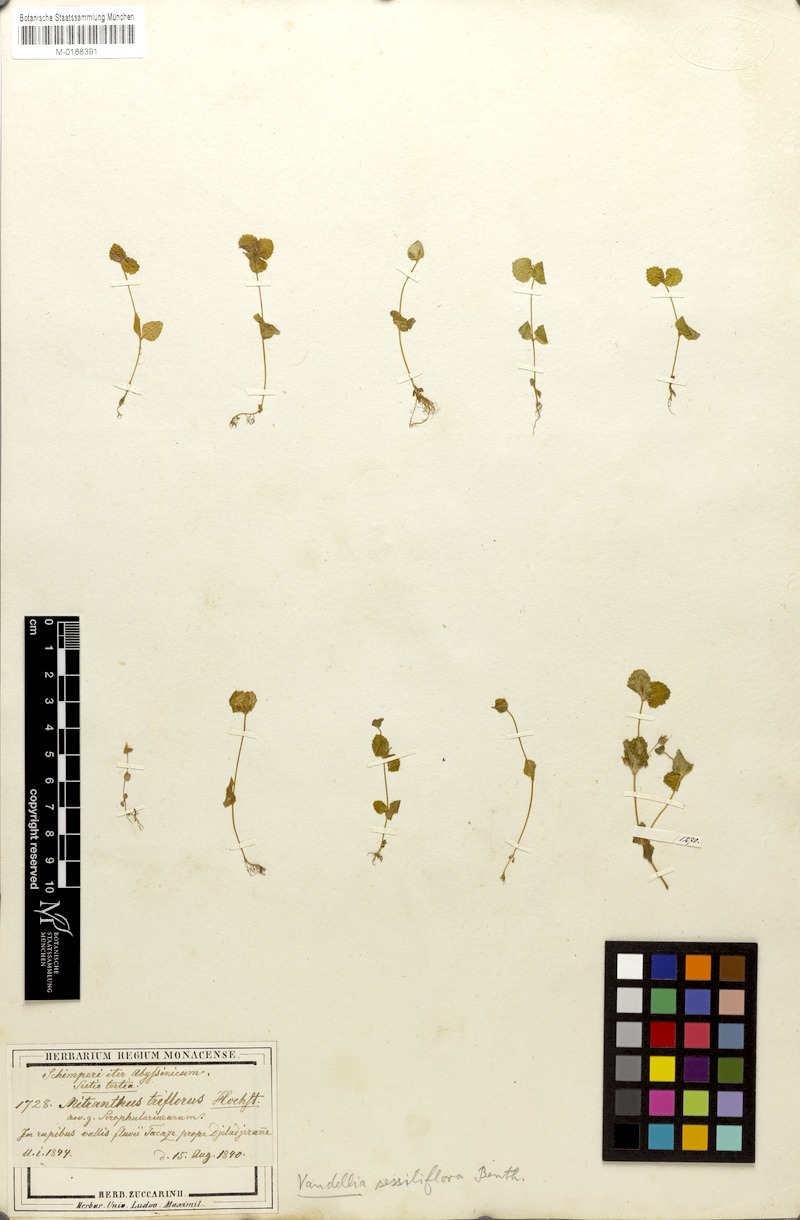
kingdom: Plantae
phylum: Tracheophyta
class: Magnoliopsida
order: Lamiales
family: Linderniaceae
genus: Craterostigma
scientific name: Craterostigma sessiliflorum
